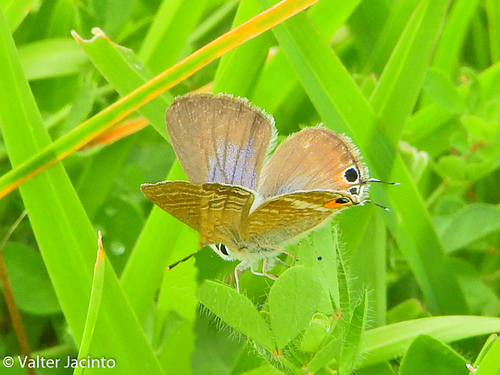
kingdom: Animalia
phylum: Arthropoda
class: Insecta
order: Lepidoptera
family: Lycaenidae
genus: Lampides
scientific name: Lampides boeticus
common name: Long-tailed blue
